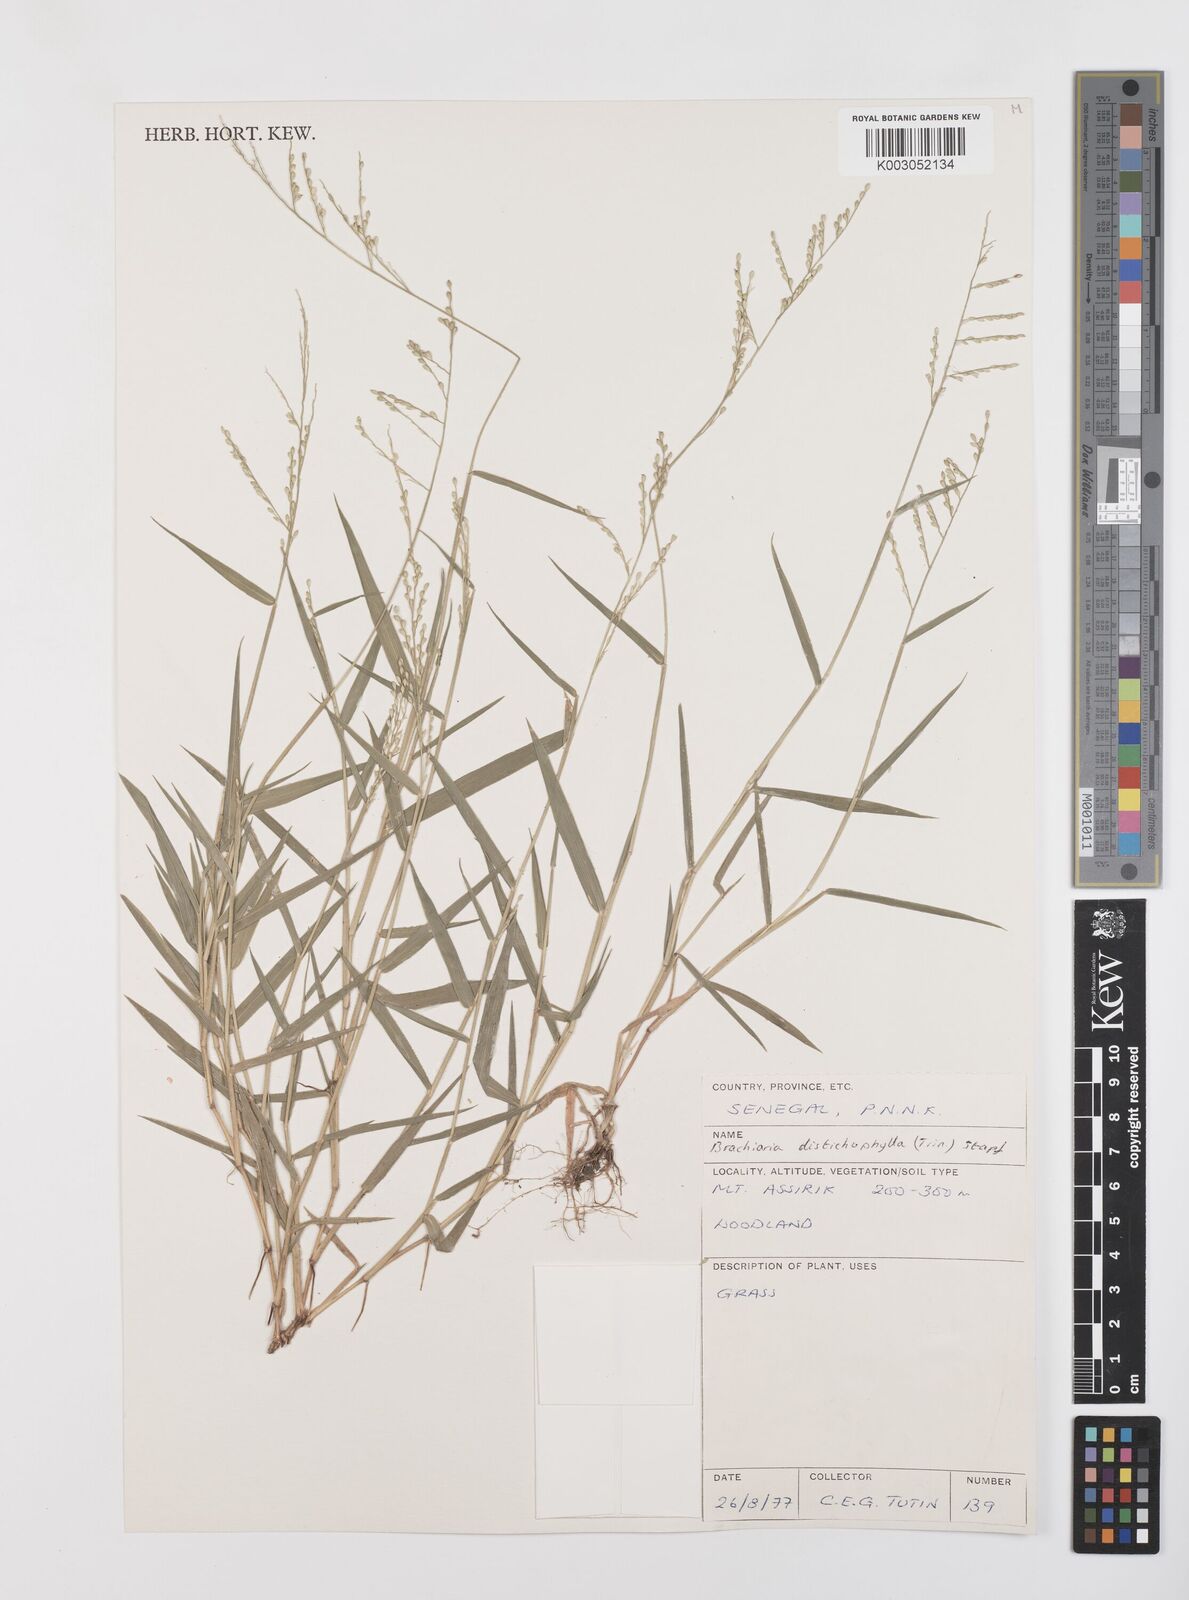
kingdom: Plantae
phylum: Tracheophyta
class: Liliopsida
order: Poales
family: Poaceae
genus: Urochloa
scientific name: Urochloa villosa
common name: Hairy signalgrass
